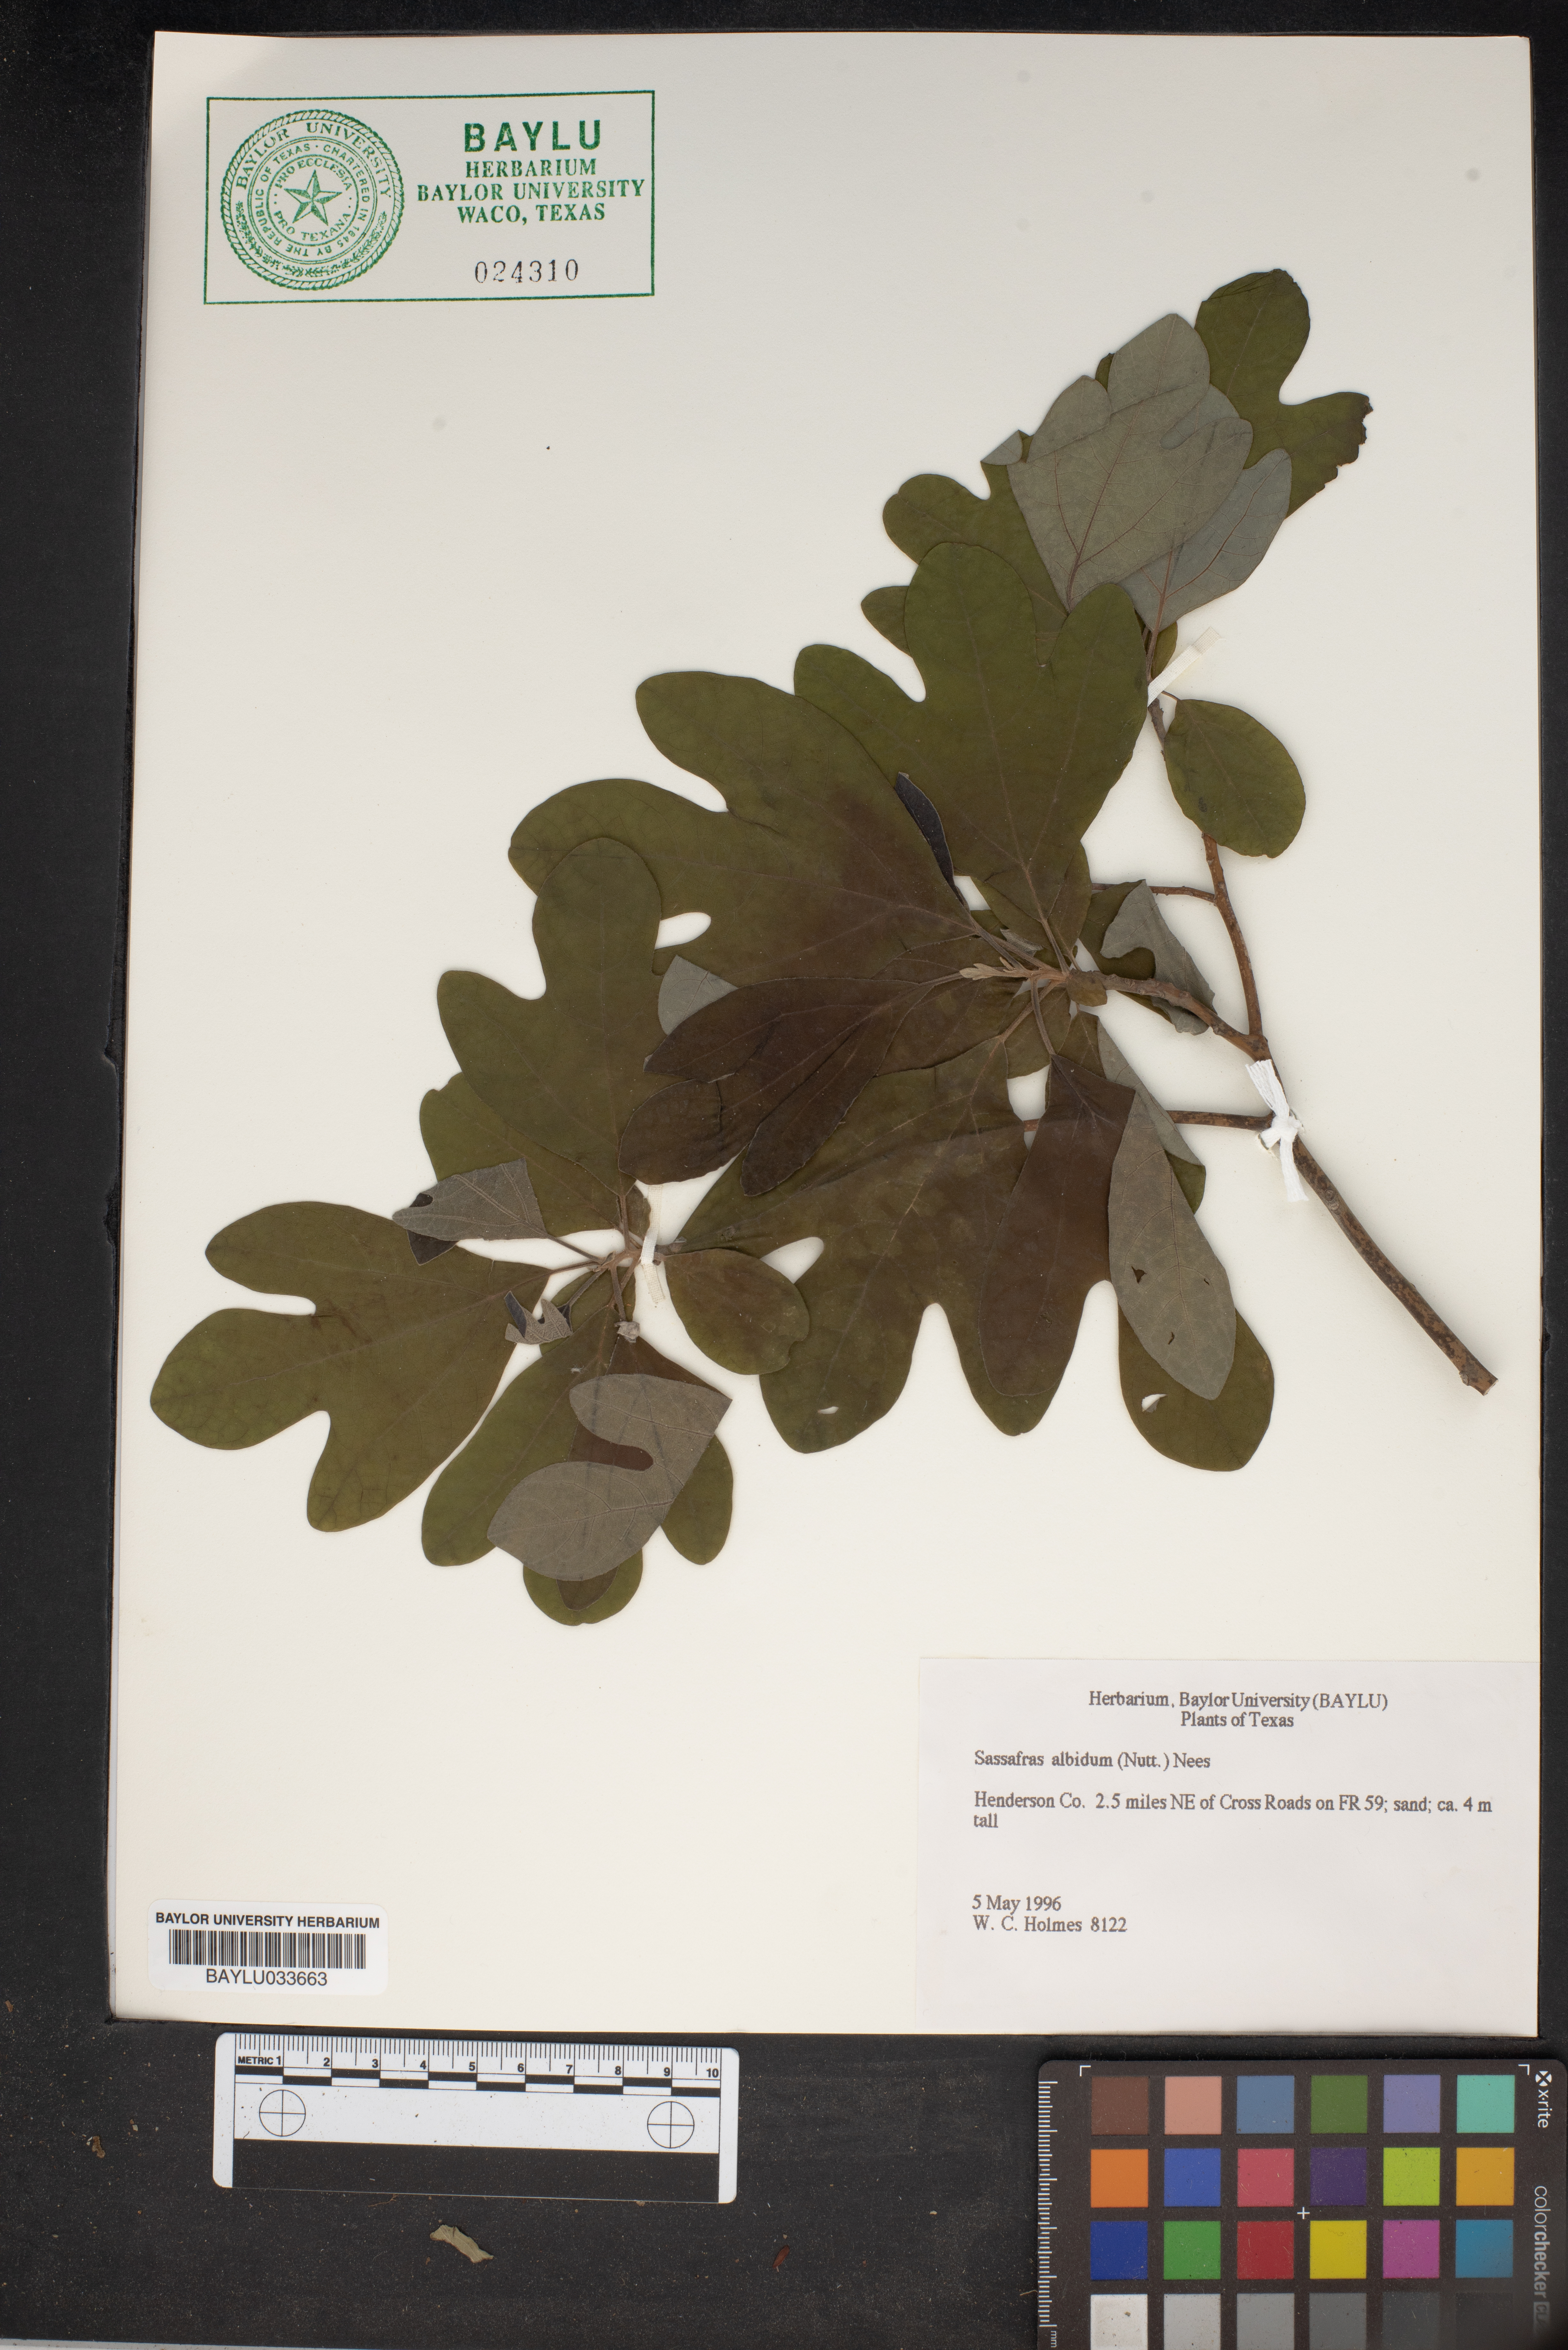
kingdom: Plantae
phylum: Tracheophyta
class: Magnoliopsida
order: Laurales
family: Lauraceae
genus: Sassafras
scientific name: Sassafras albidum
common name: Sassafras
